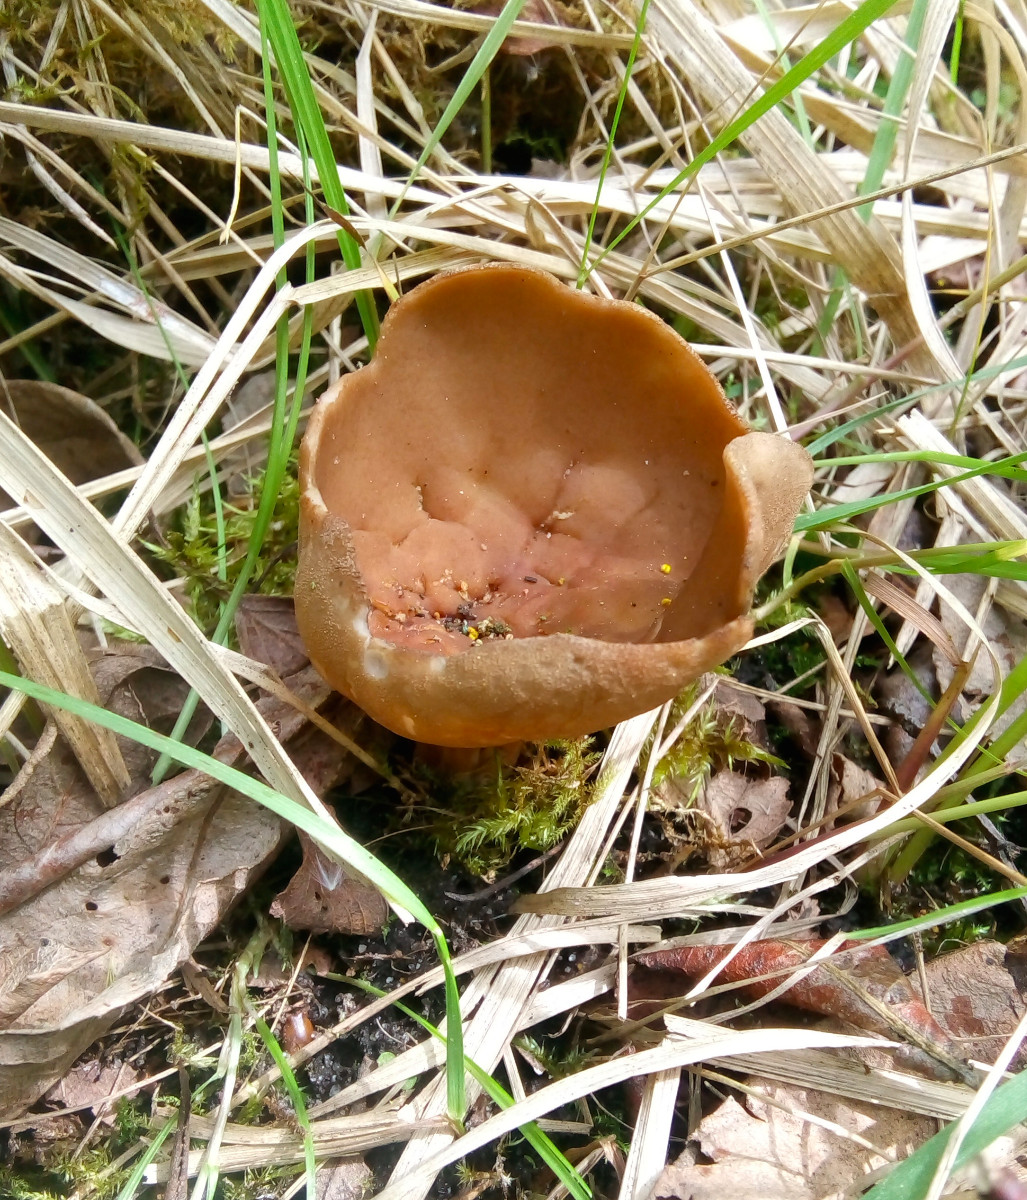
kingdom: Fungi
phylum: Ascomycota
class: Pezizomycetes
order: Pezizales
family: Helvellaceae
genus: Helvella
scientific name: Helvella acetabulum
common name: pokal-foldhat
